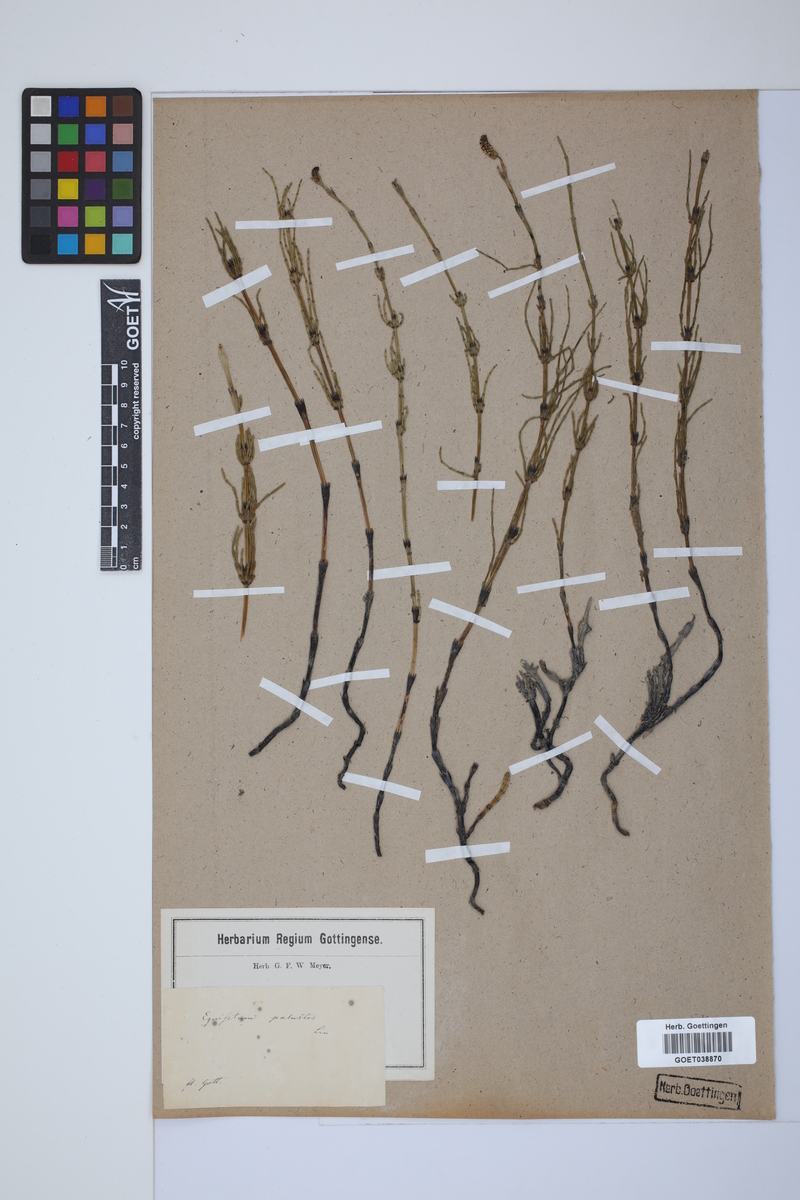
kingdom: Plantae
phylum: Tracheophyta
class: Polypodiopsida
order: Equisetales
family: Equisetaceae
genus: Equisetum
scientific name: Equisetum palustre
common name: Marsh horsetail
